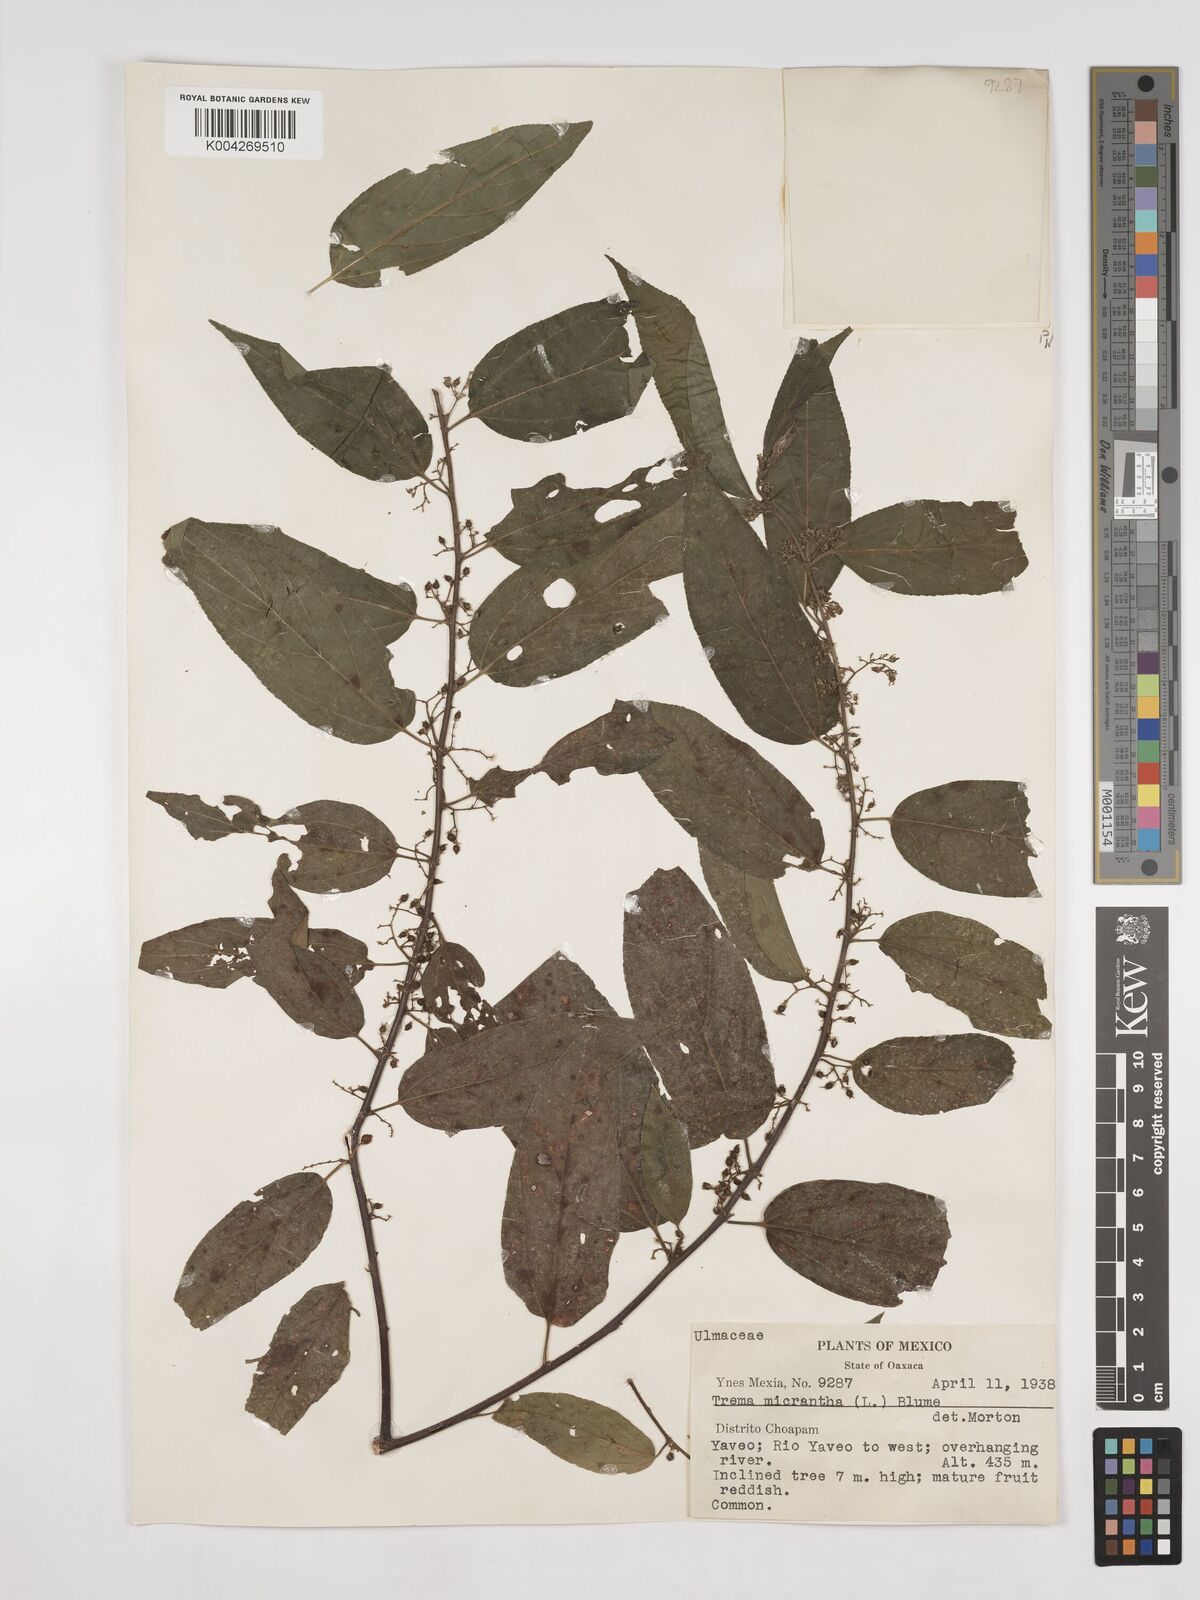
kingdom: Plantae
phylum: Tracheophyta
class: Magnoliopsida
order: Rosales
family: Cannabaceae
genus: Trema
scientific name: Trema micranthum
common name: Jamaican nettletree
